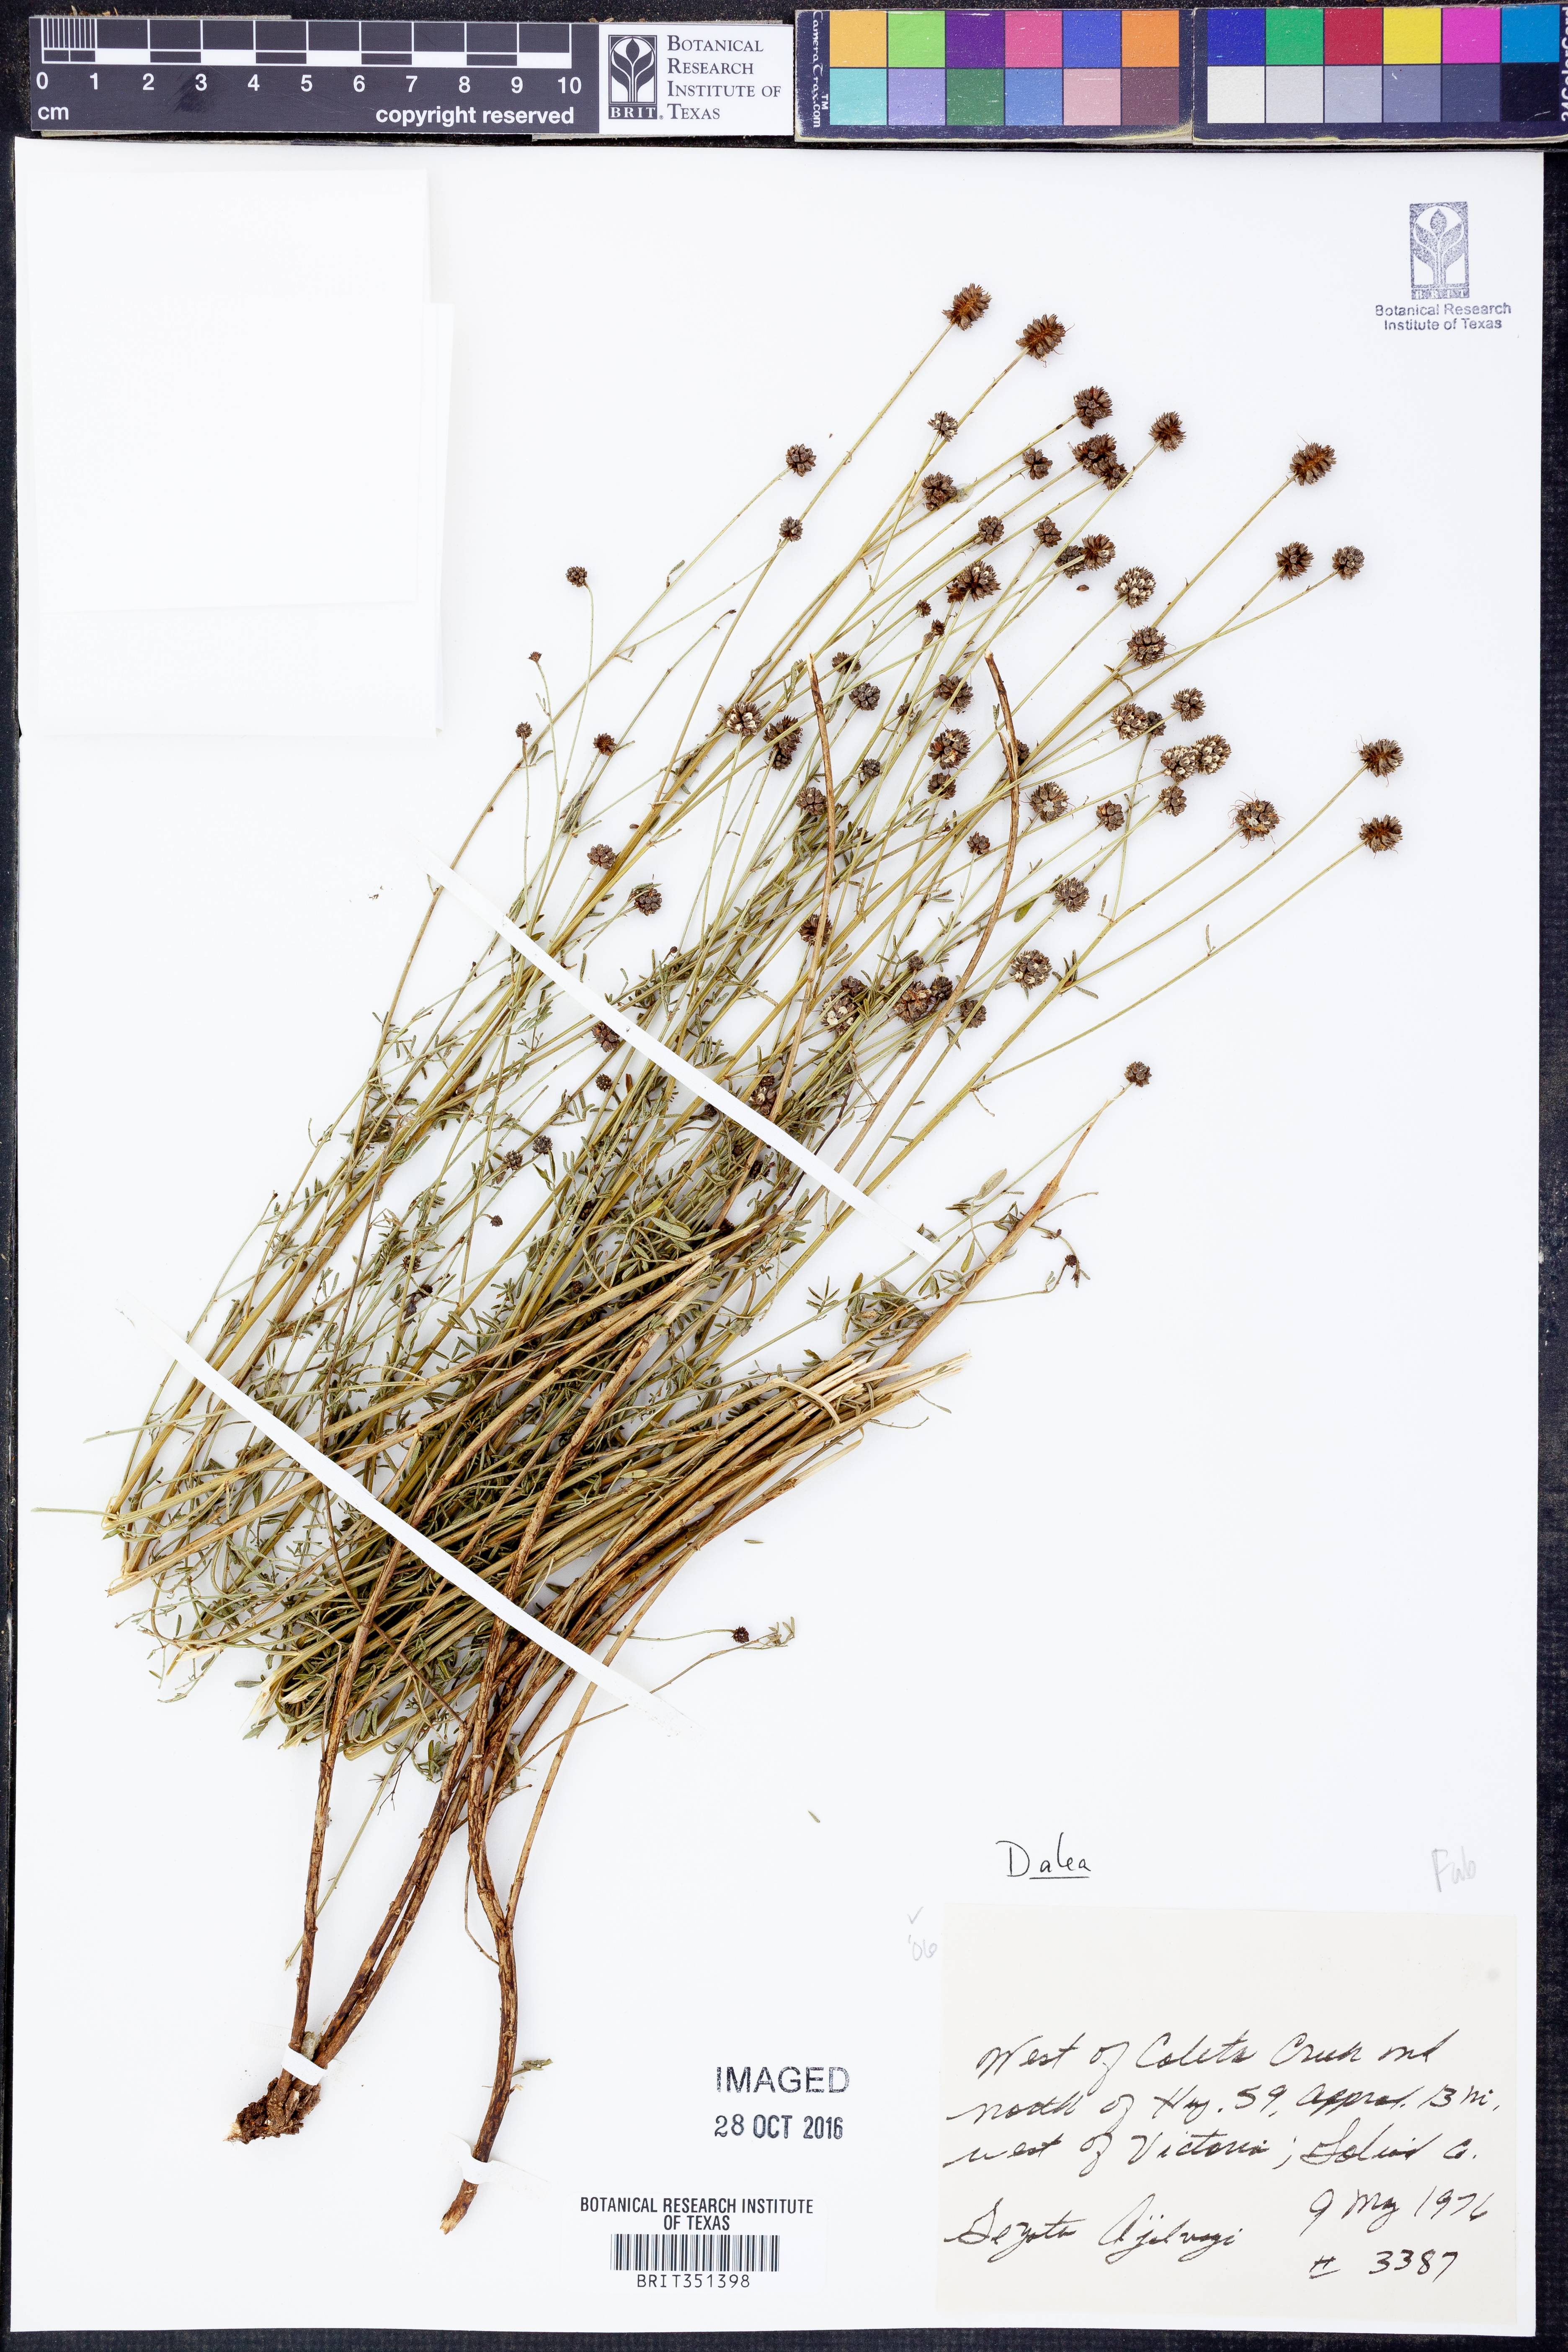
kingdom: Plantae
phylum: Tracheophyta
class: Magnoliopsida
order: Fabales
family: Fabaceae
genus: Dalea
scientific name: Dalea
